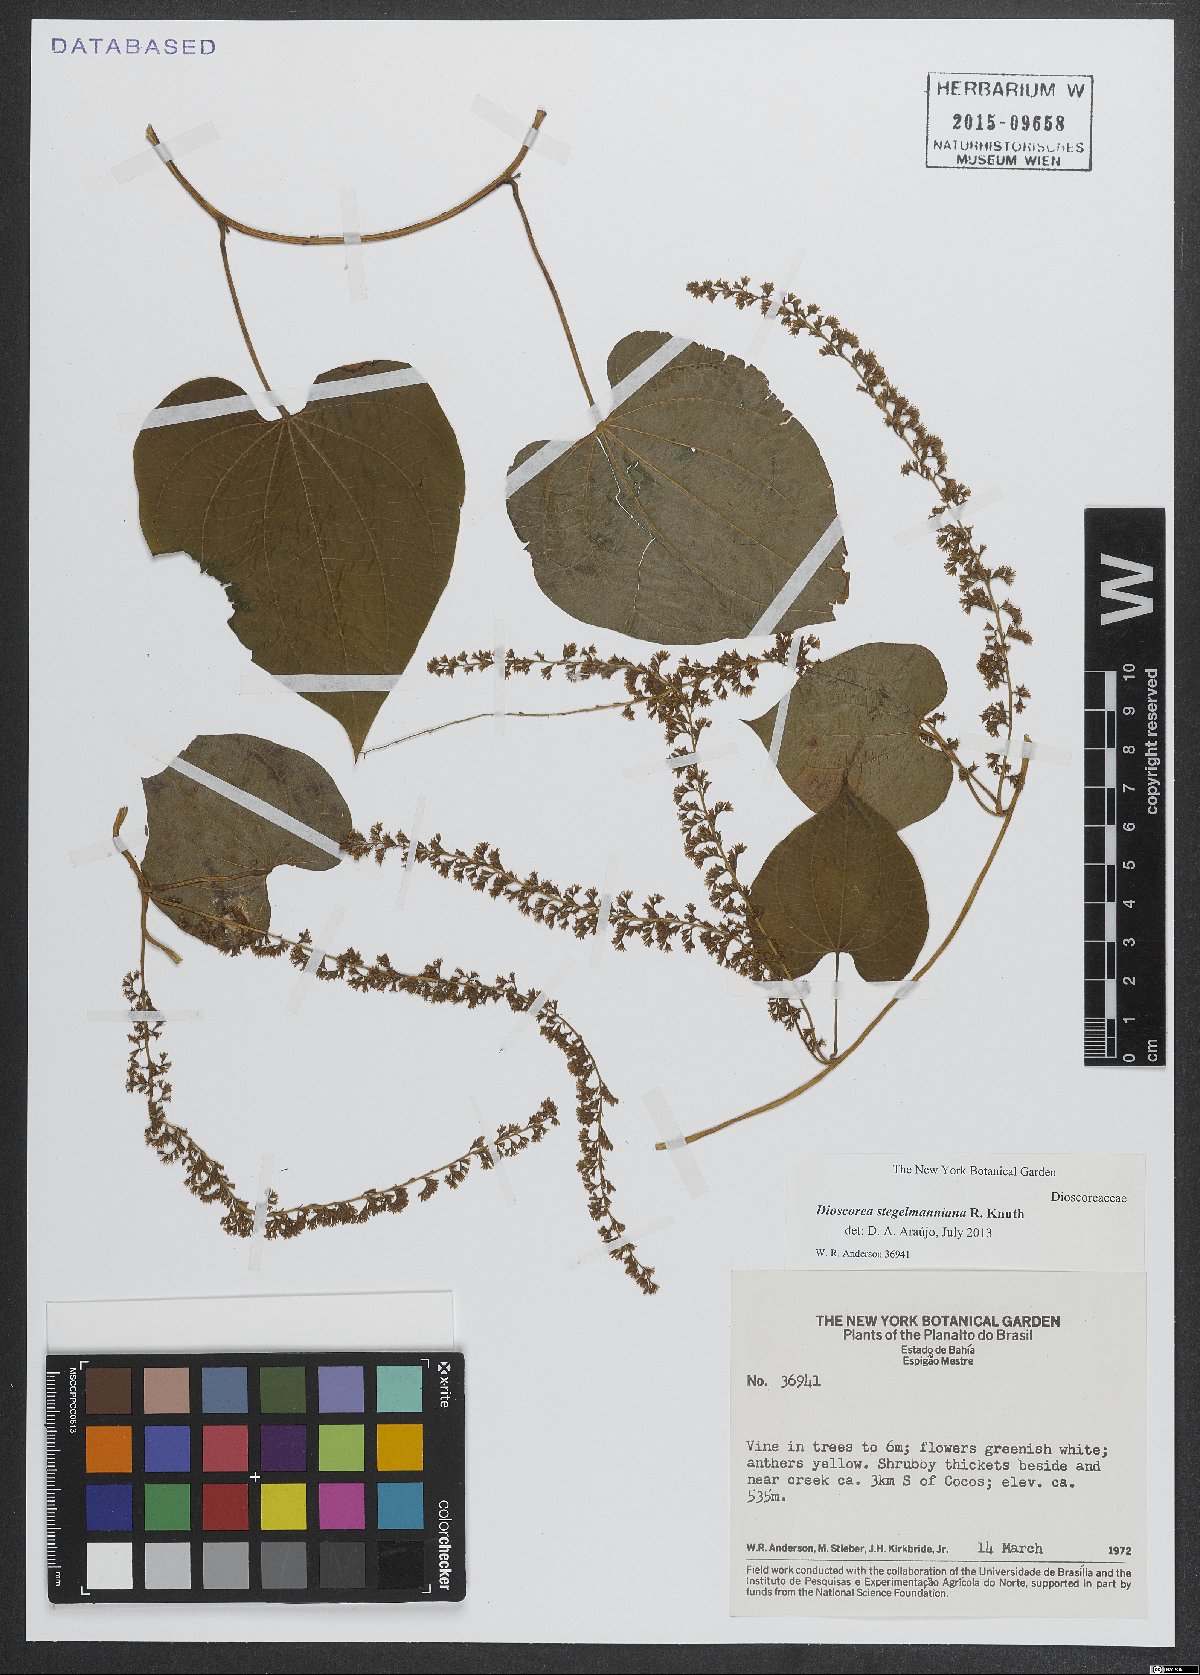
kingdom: Plantae
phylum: Tracheophyta
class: Liliopsida
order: Dioscoreales
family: Dioscoreaceae
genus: Dioscorea
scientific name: Dioscorea stegelmanniana
